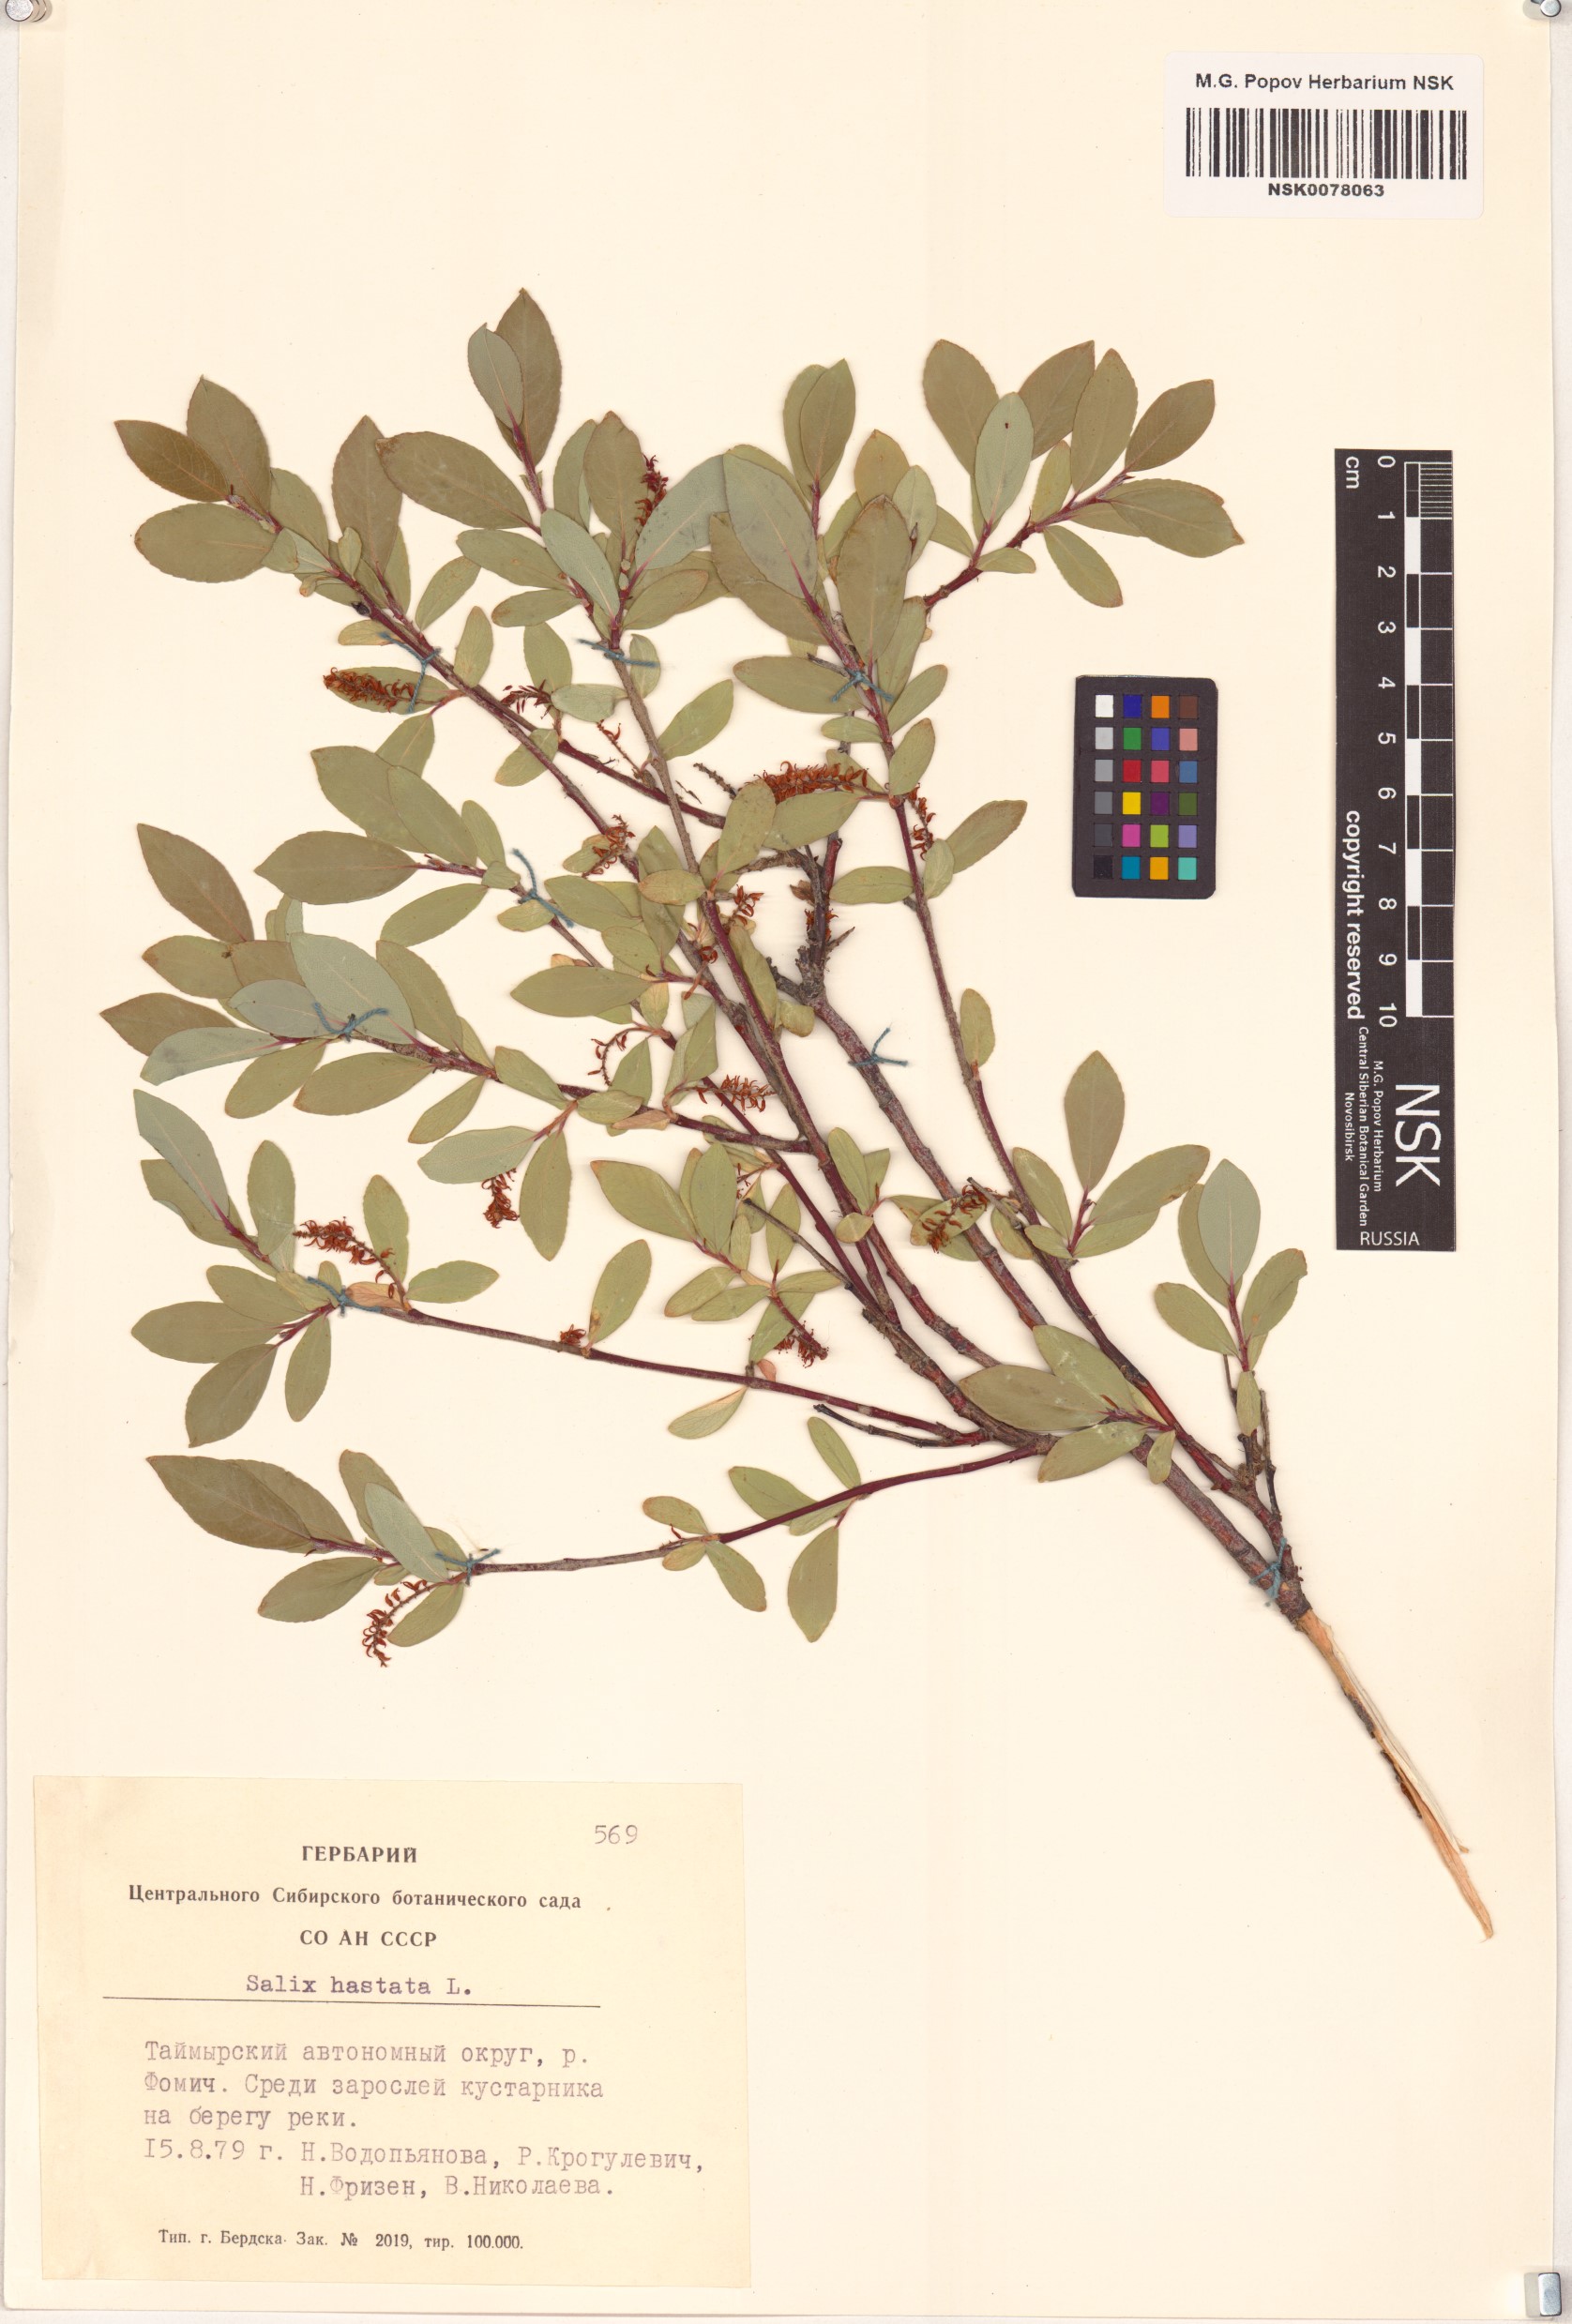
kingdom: Plantae
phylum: Tracheophyta
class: Magnoliopsida
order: Malpighiales
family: Salicaceae
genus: Salix
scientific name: Salix hastata
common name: Halberd willow
